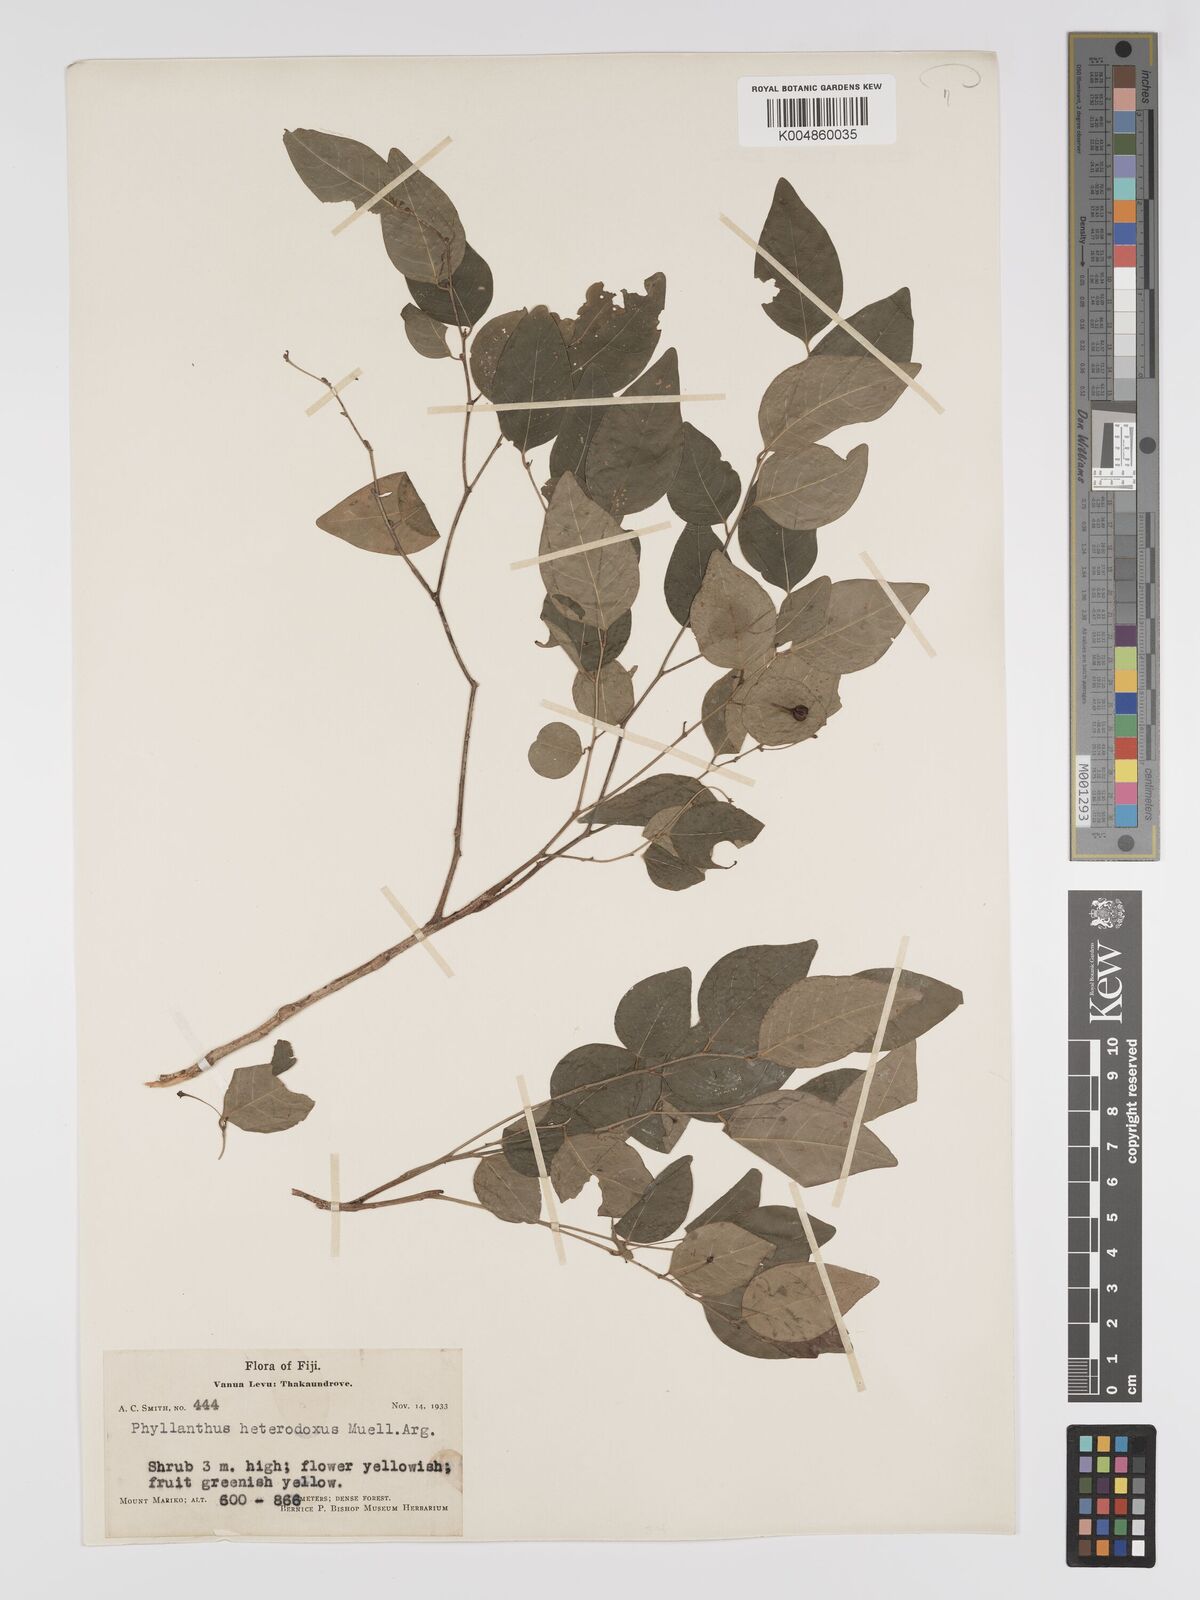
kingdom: Plantae
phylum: Tracheophyta
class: Magnoliopsida
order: Malpighiales
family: Phyllanthaceae
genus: Glochidion
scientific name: Glochidion heterodoxum
